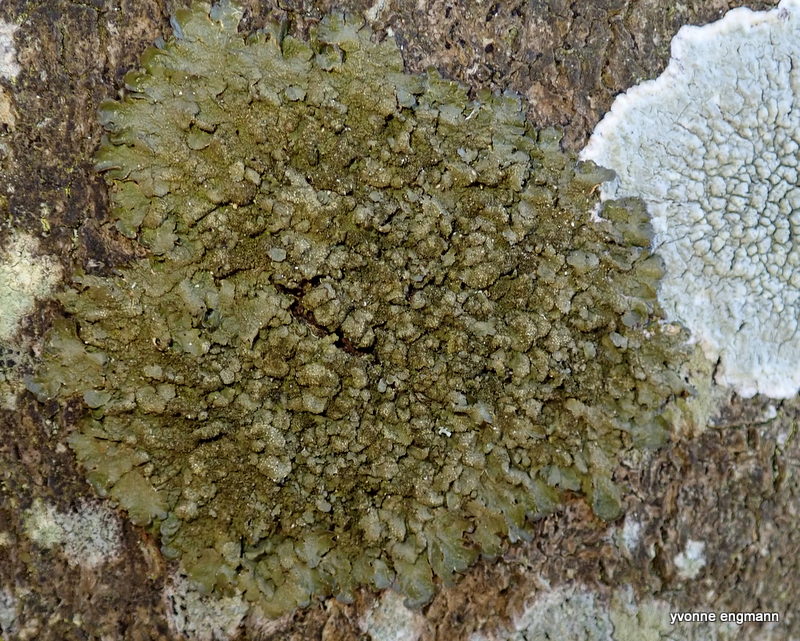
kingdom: Fungi
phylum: Ascomycota
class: Lecanoromycetes
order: Lecanorales
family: Parmeliaceae
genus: Melanelixia
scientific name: Melanelixia glabratula
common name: glinsende skållav
